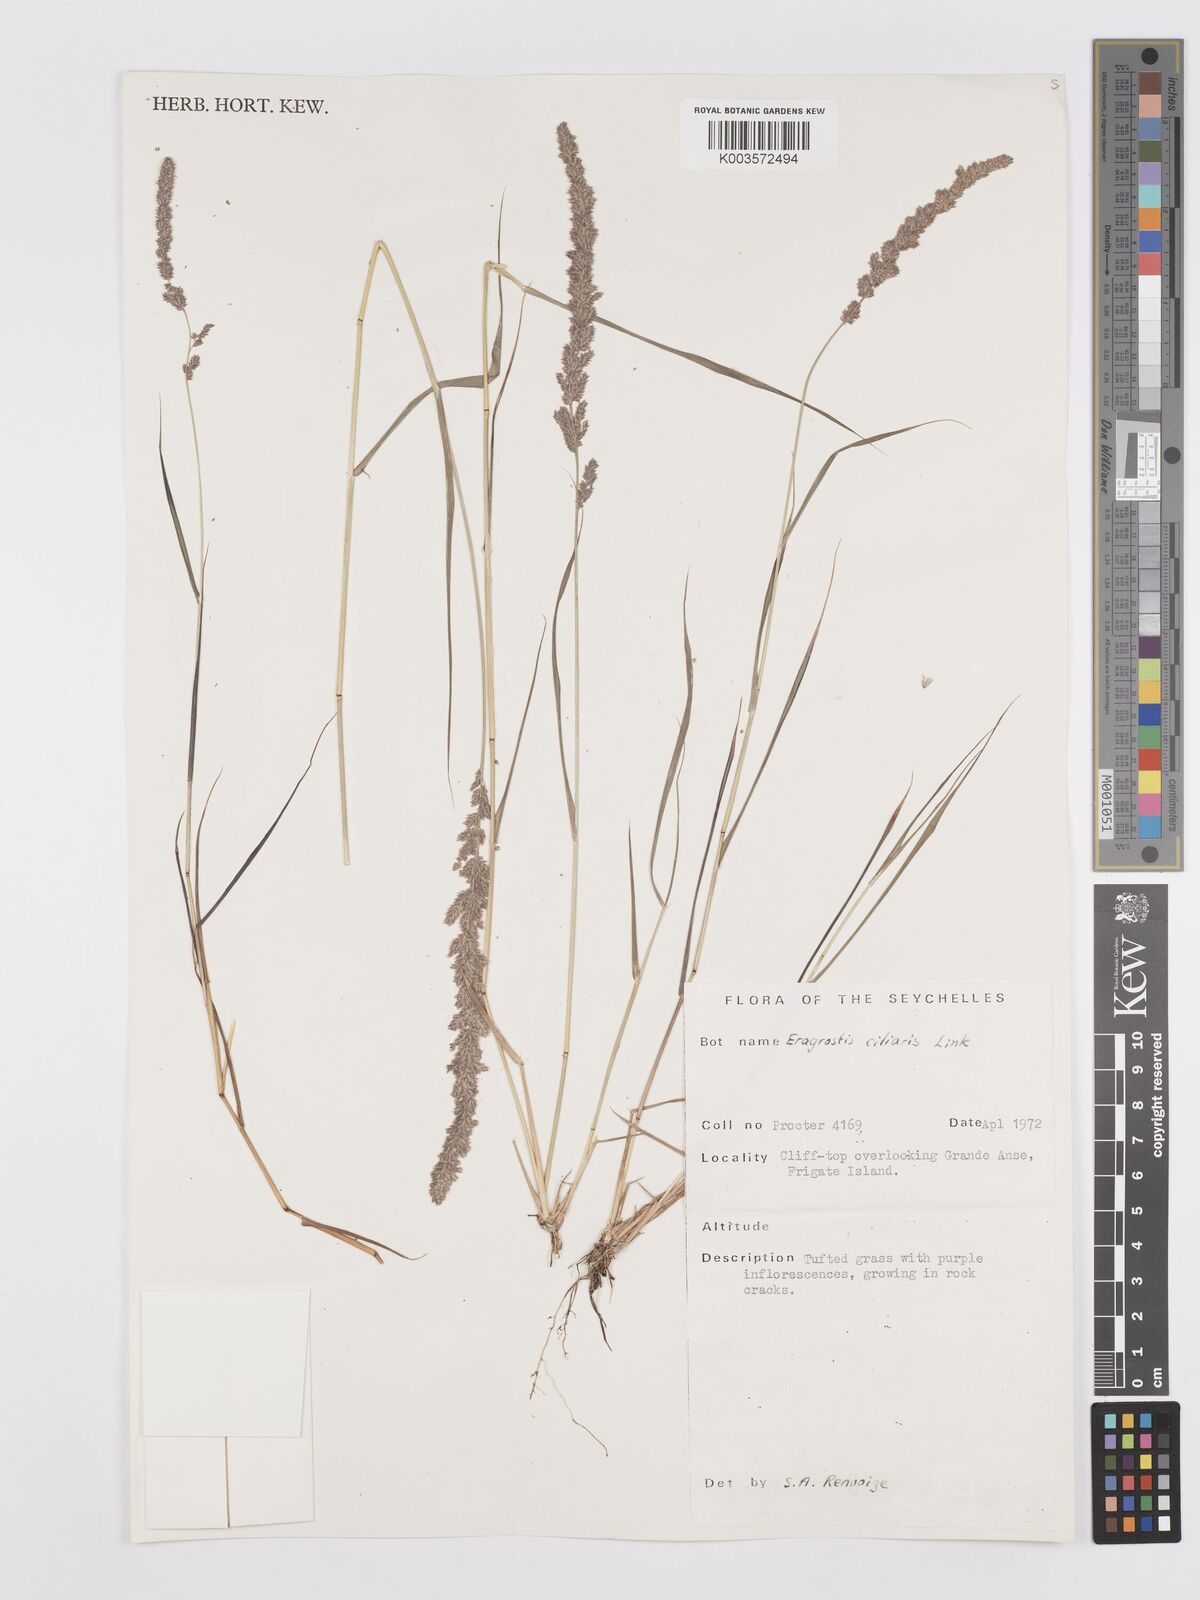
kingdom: Plantae
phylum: Tracheophyta
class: Liliopsida
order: Poales
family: Poaceae
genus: Eragrostis
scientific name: Eragrostis ciliaris
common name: Gophertail lovegrass
